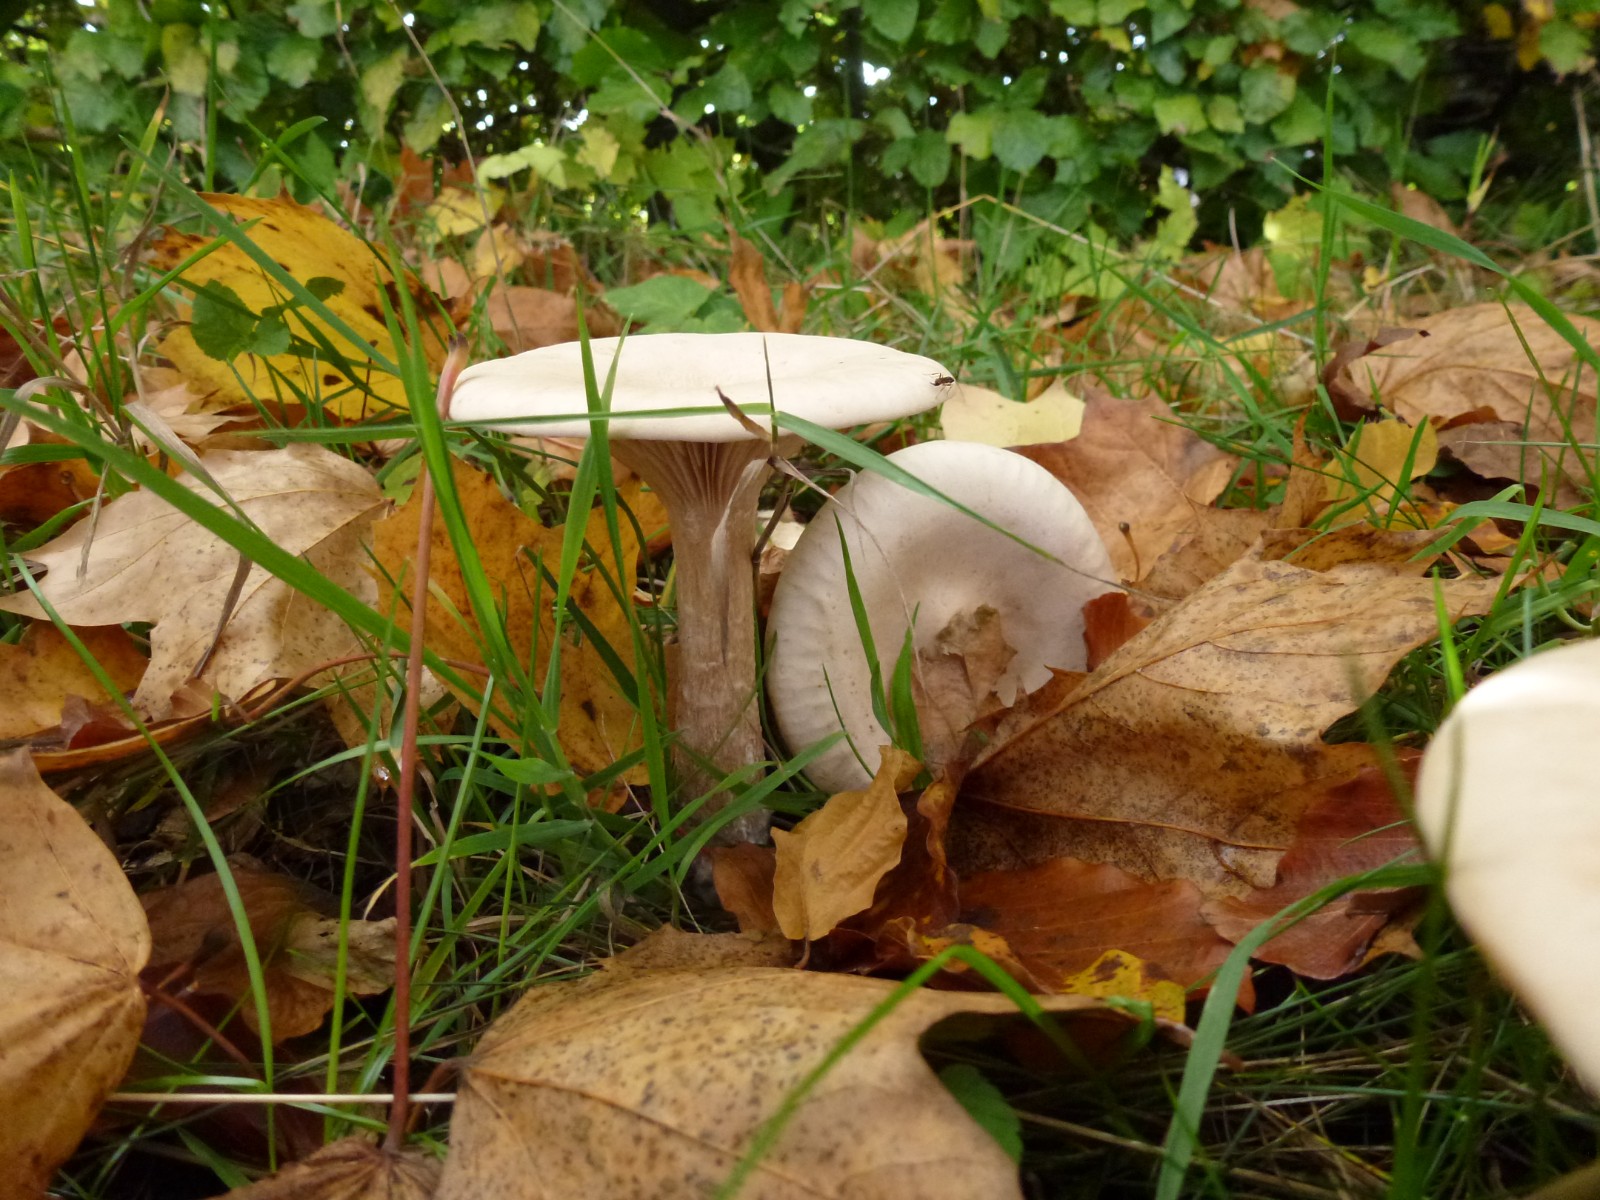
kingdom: Fungi
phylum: Basidiomycota
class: Agaricomycetes
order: Agaricales
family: Tricholomataceae
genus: Infundibulicybe
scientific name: Infundibulicybe geotropa
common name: stor tragthat
